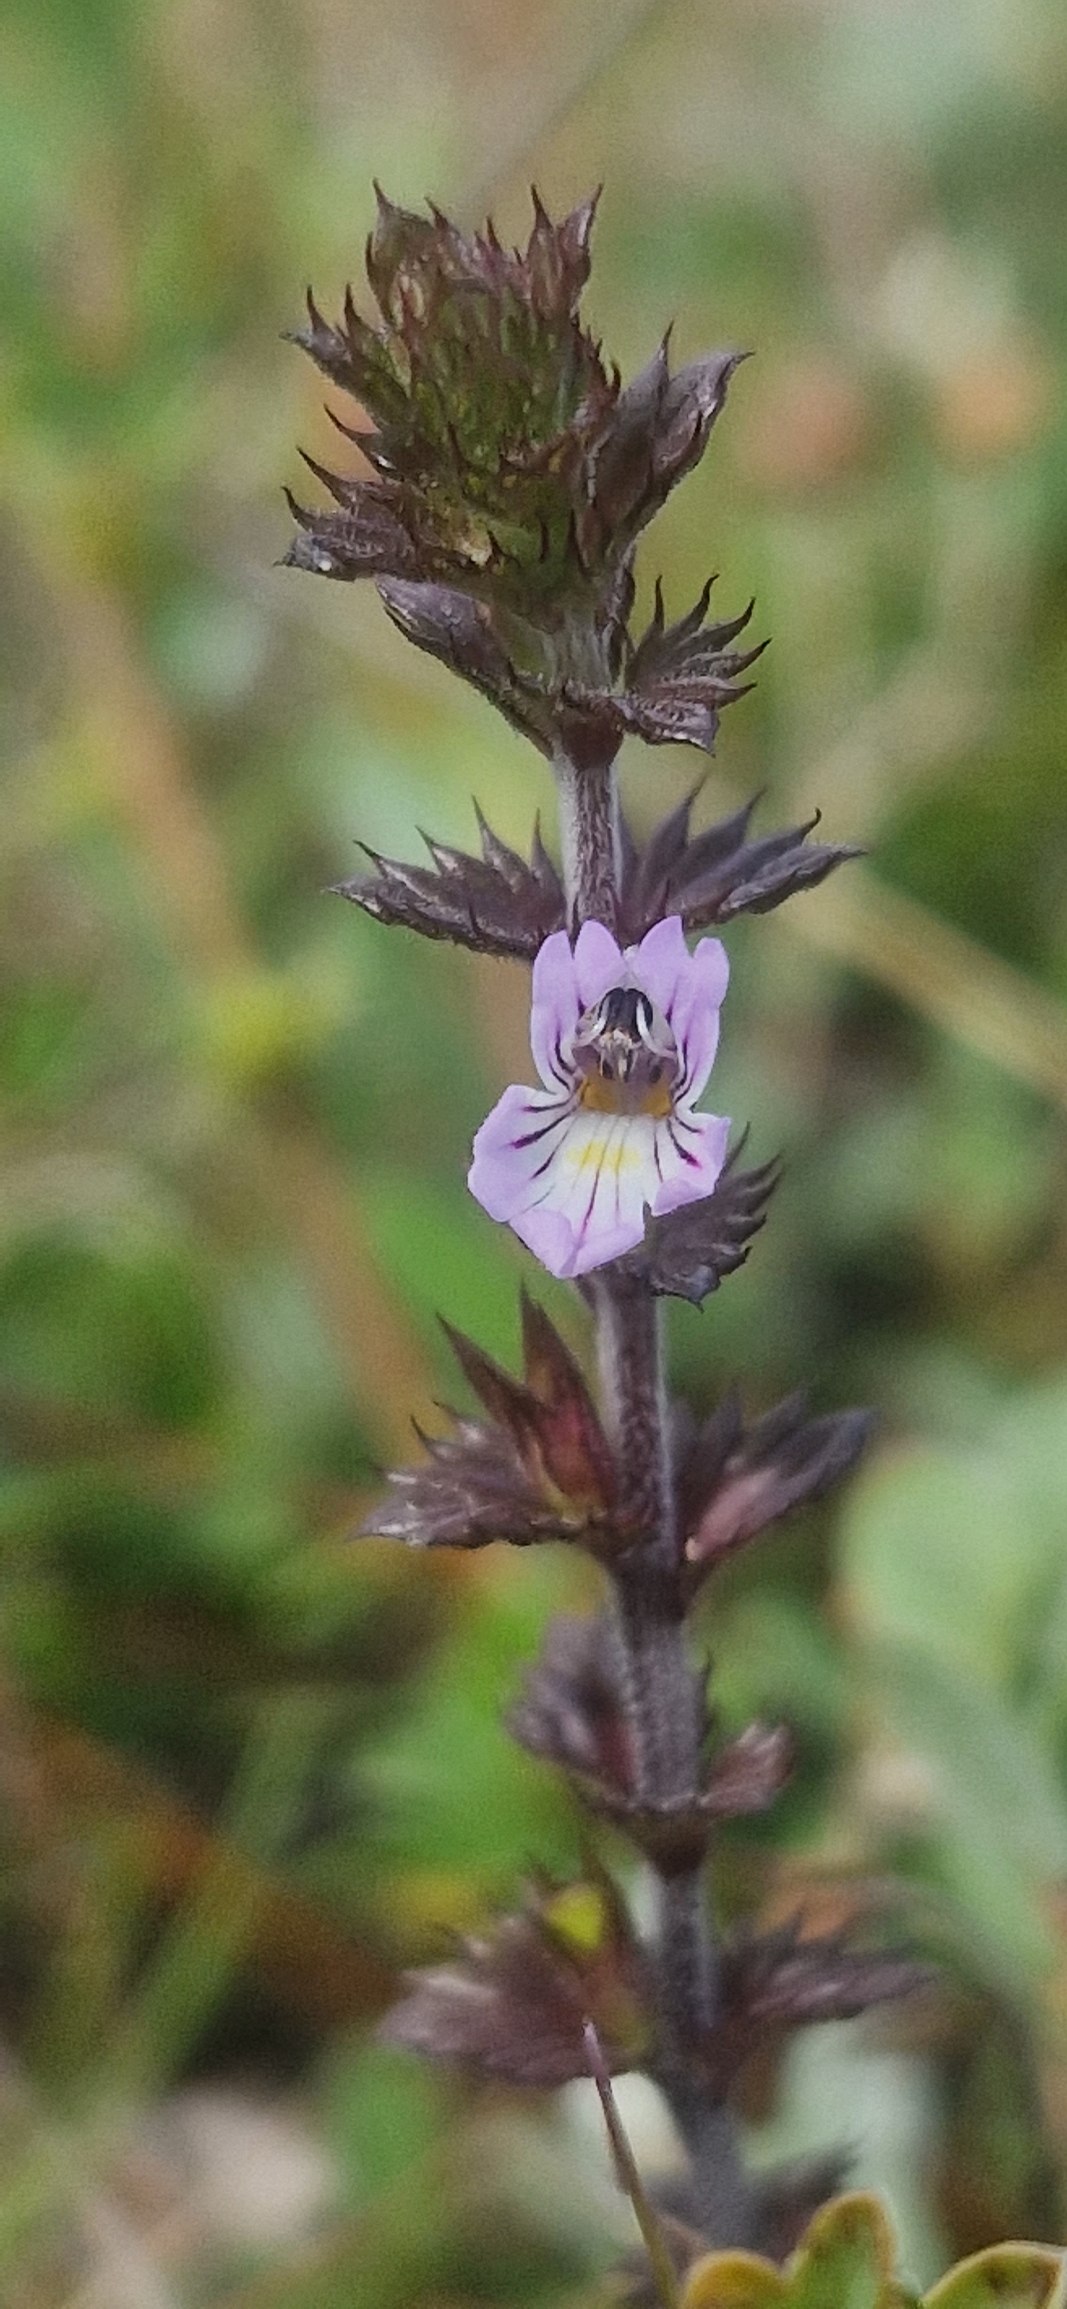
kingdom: Plantae
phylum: Tracheophyta
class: Magnoliopsida
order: Lamiales
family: Orobanchaceae
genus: Euphrasia
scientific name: Euphrasia micrantha
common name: Lyng-øjentrøst
